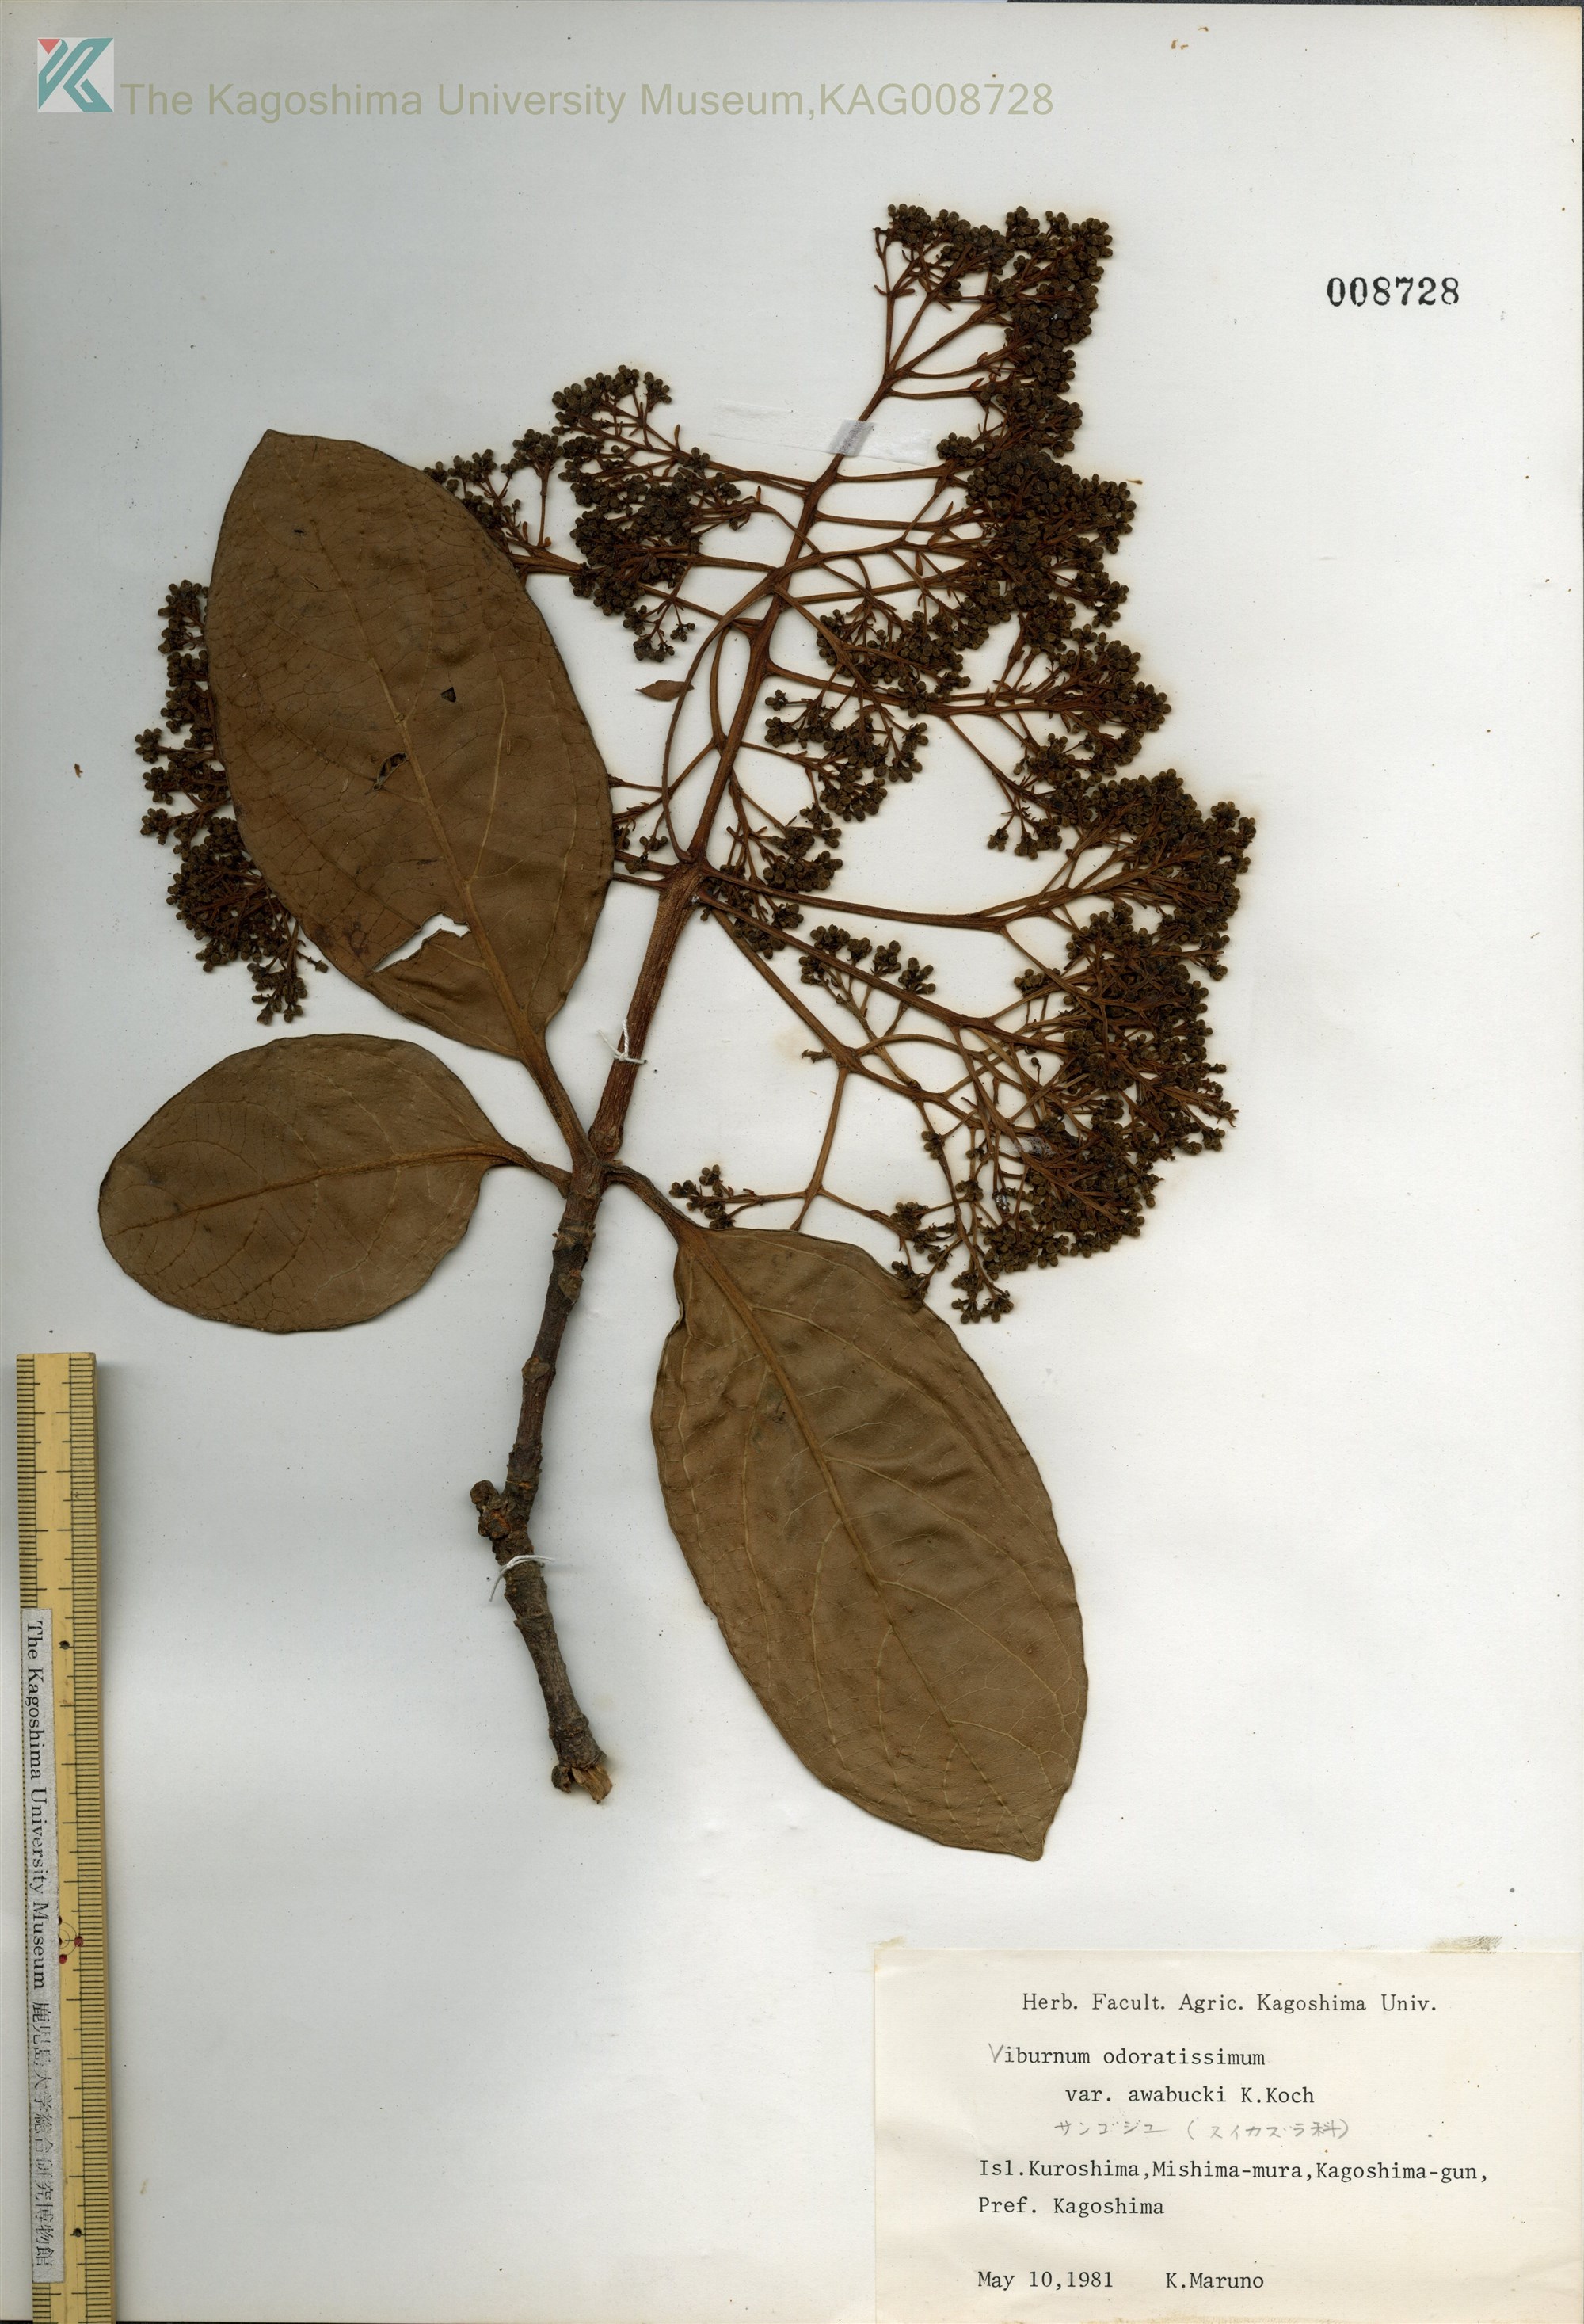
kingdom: Plantae
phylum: Tracheophyta
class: Magnoliopsida
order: Dipsacales
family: Viburnaceae
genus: Viburnum
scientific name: Viburnum odoratissimum
